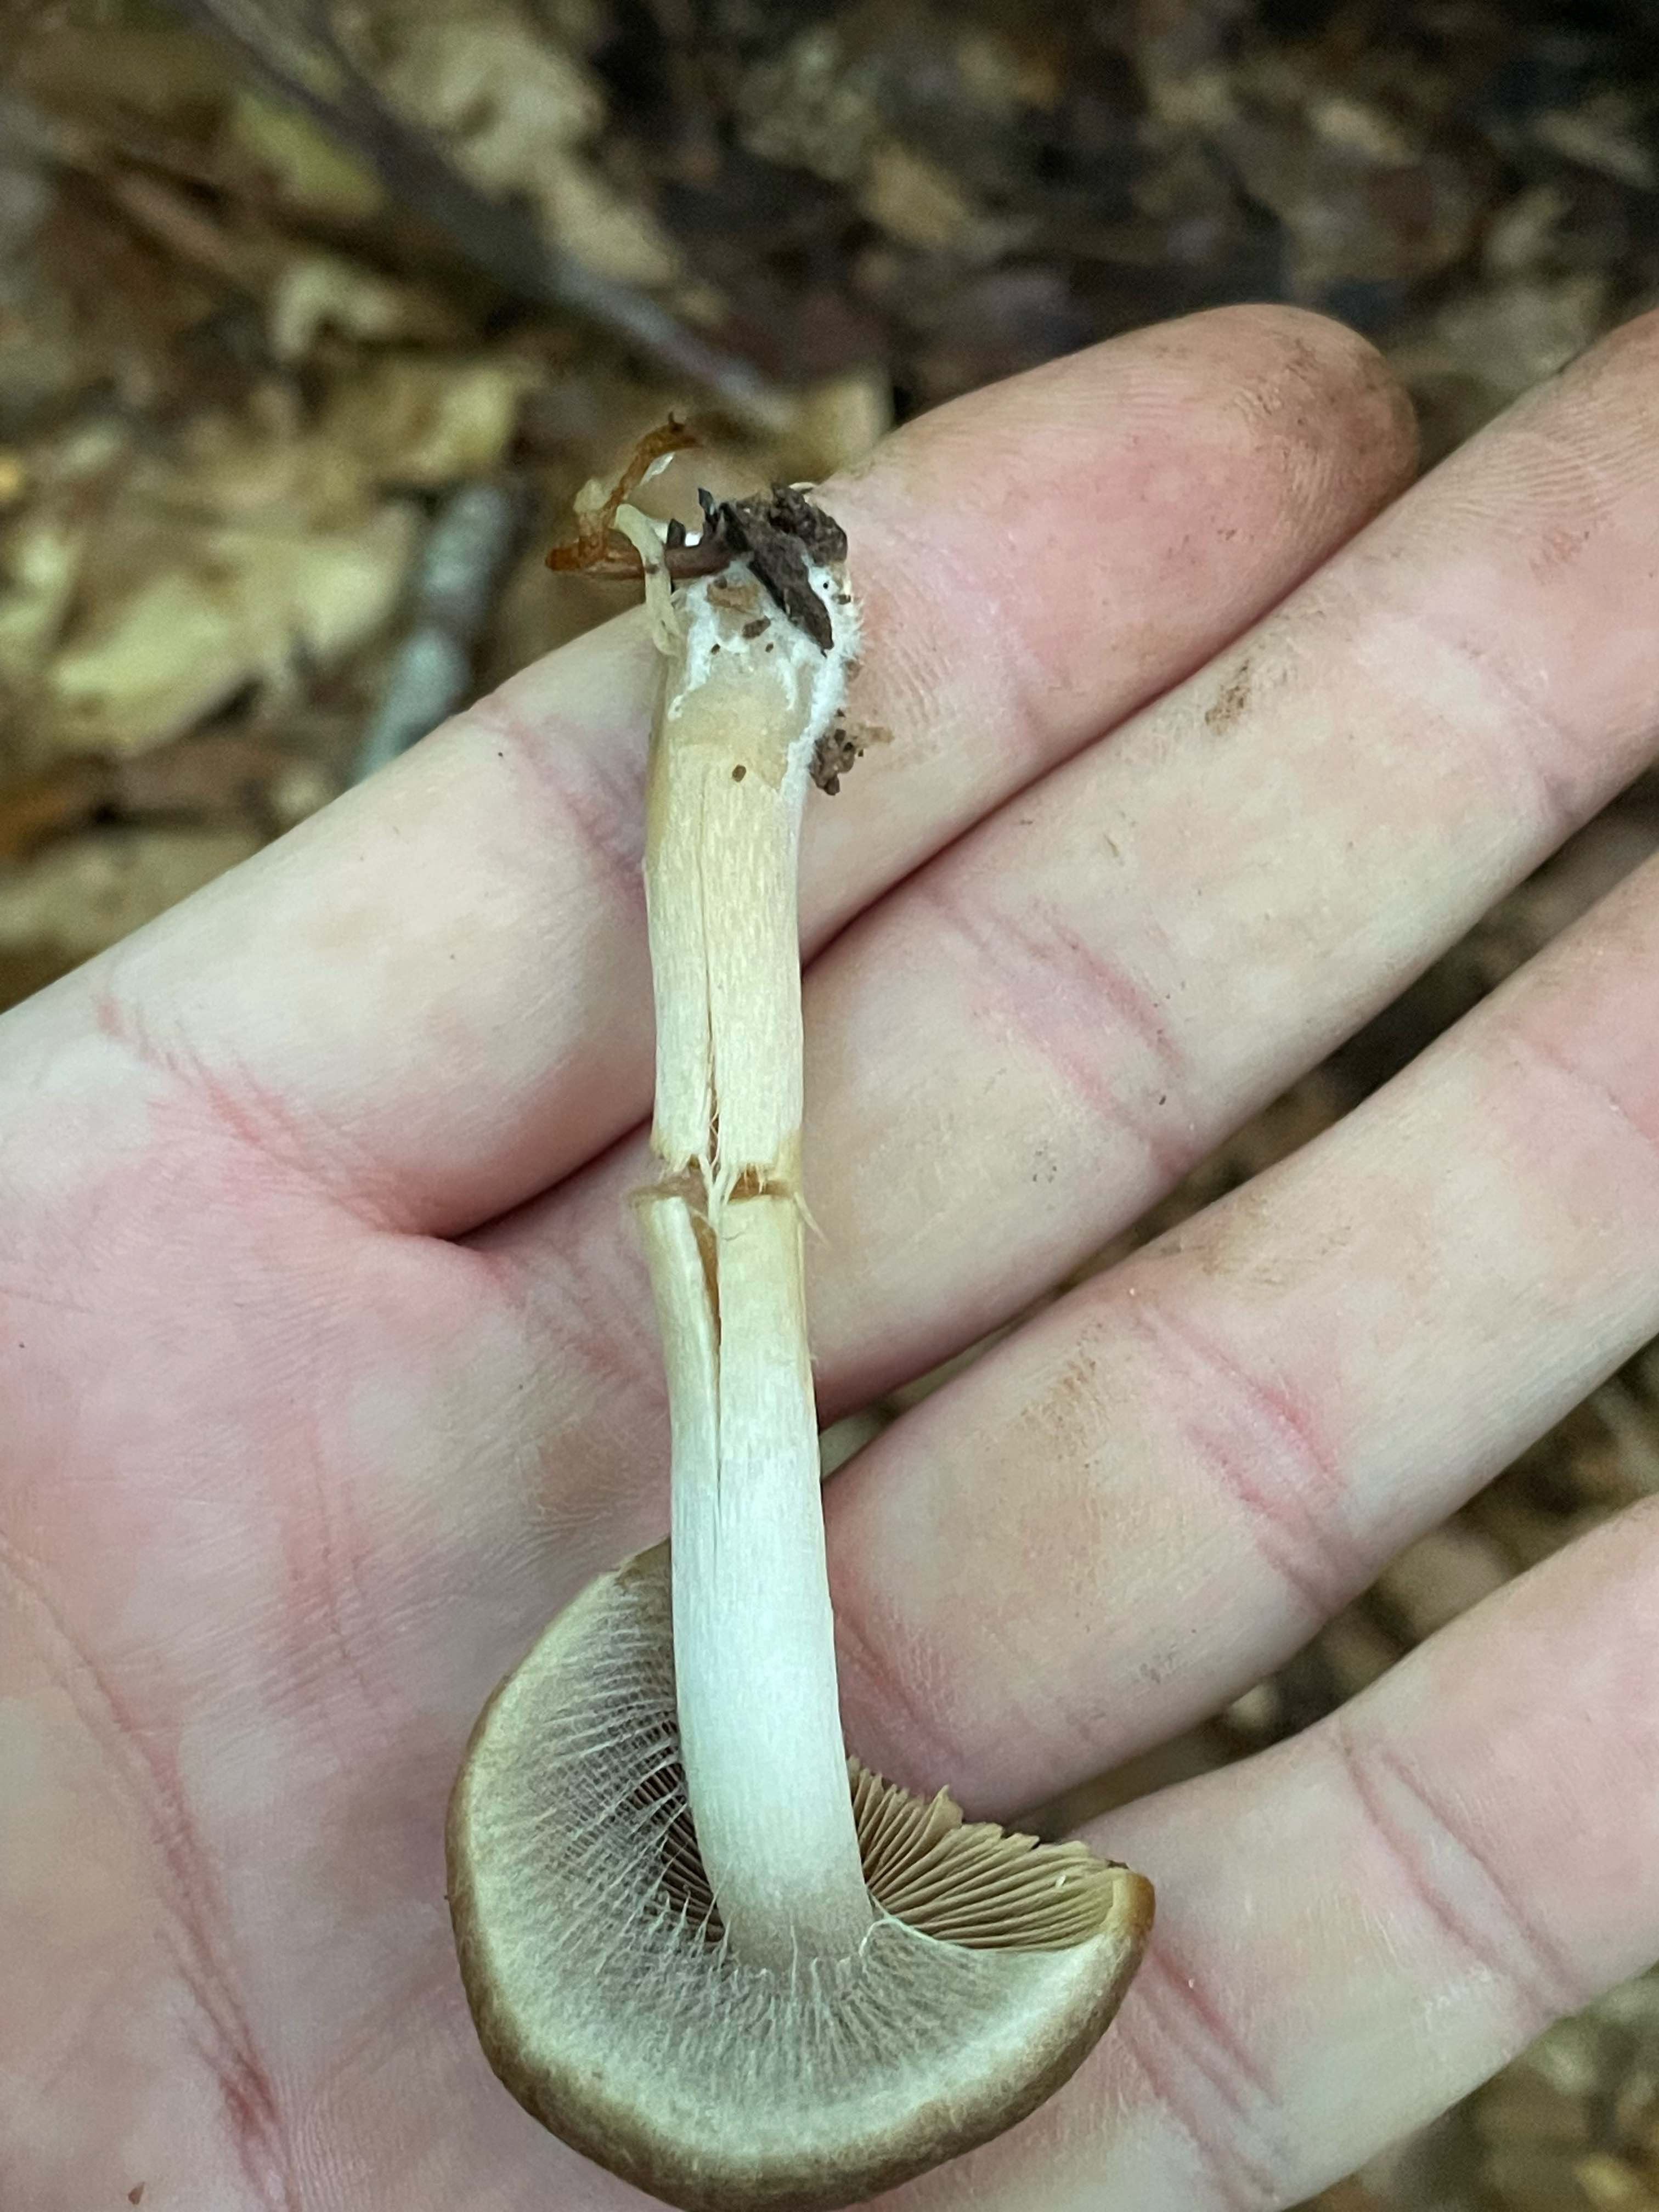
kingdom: Fungi
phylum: Basidiomycota
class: Agaricomycetes
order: Agaricales
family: Psathyrellaceae
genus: Psathyrella
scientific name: Psathyrella piluliformis
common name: lysstokket mørkhat
